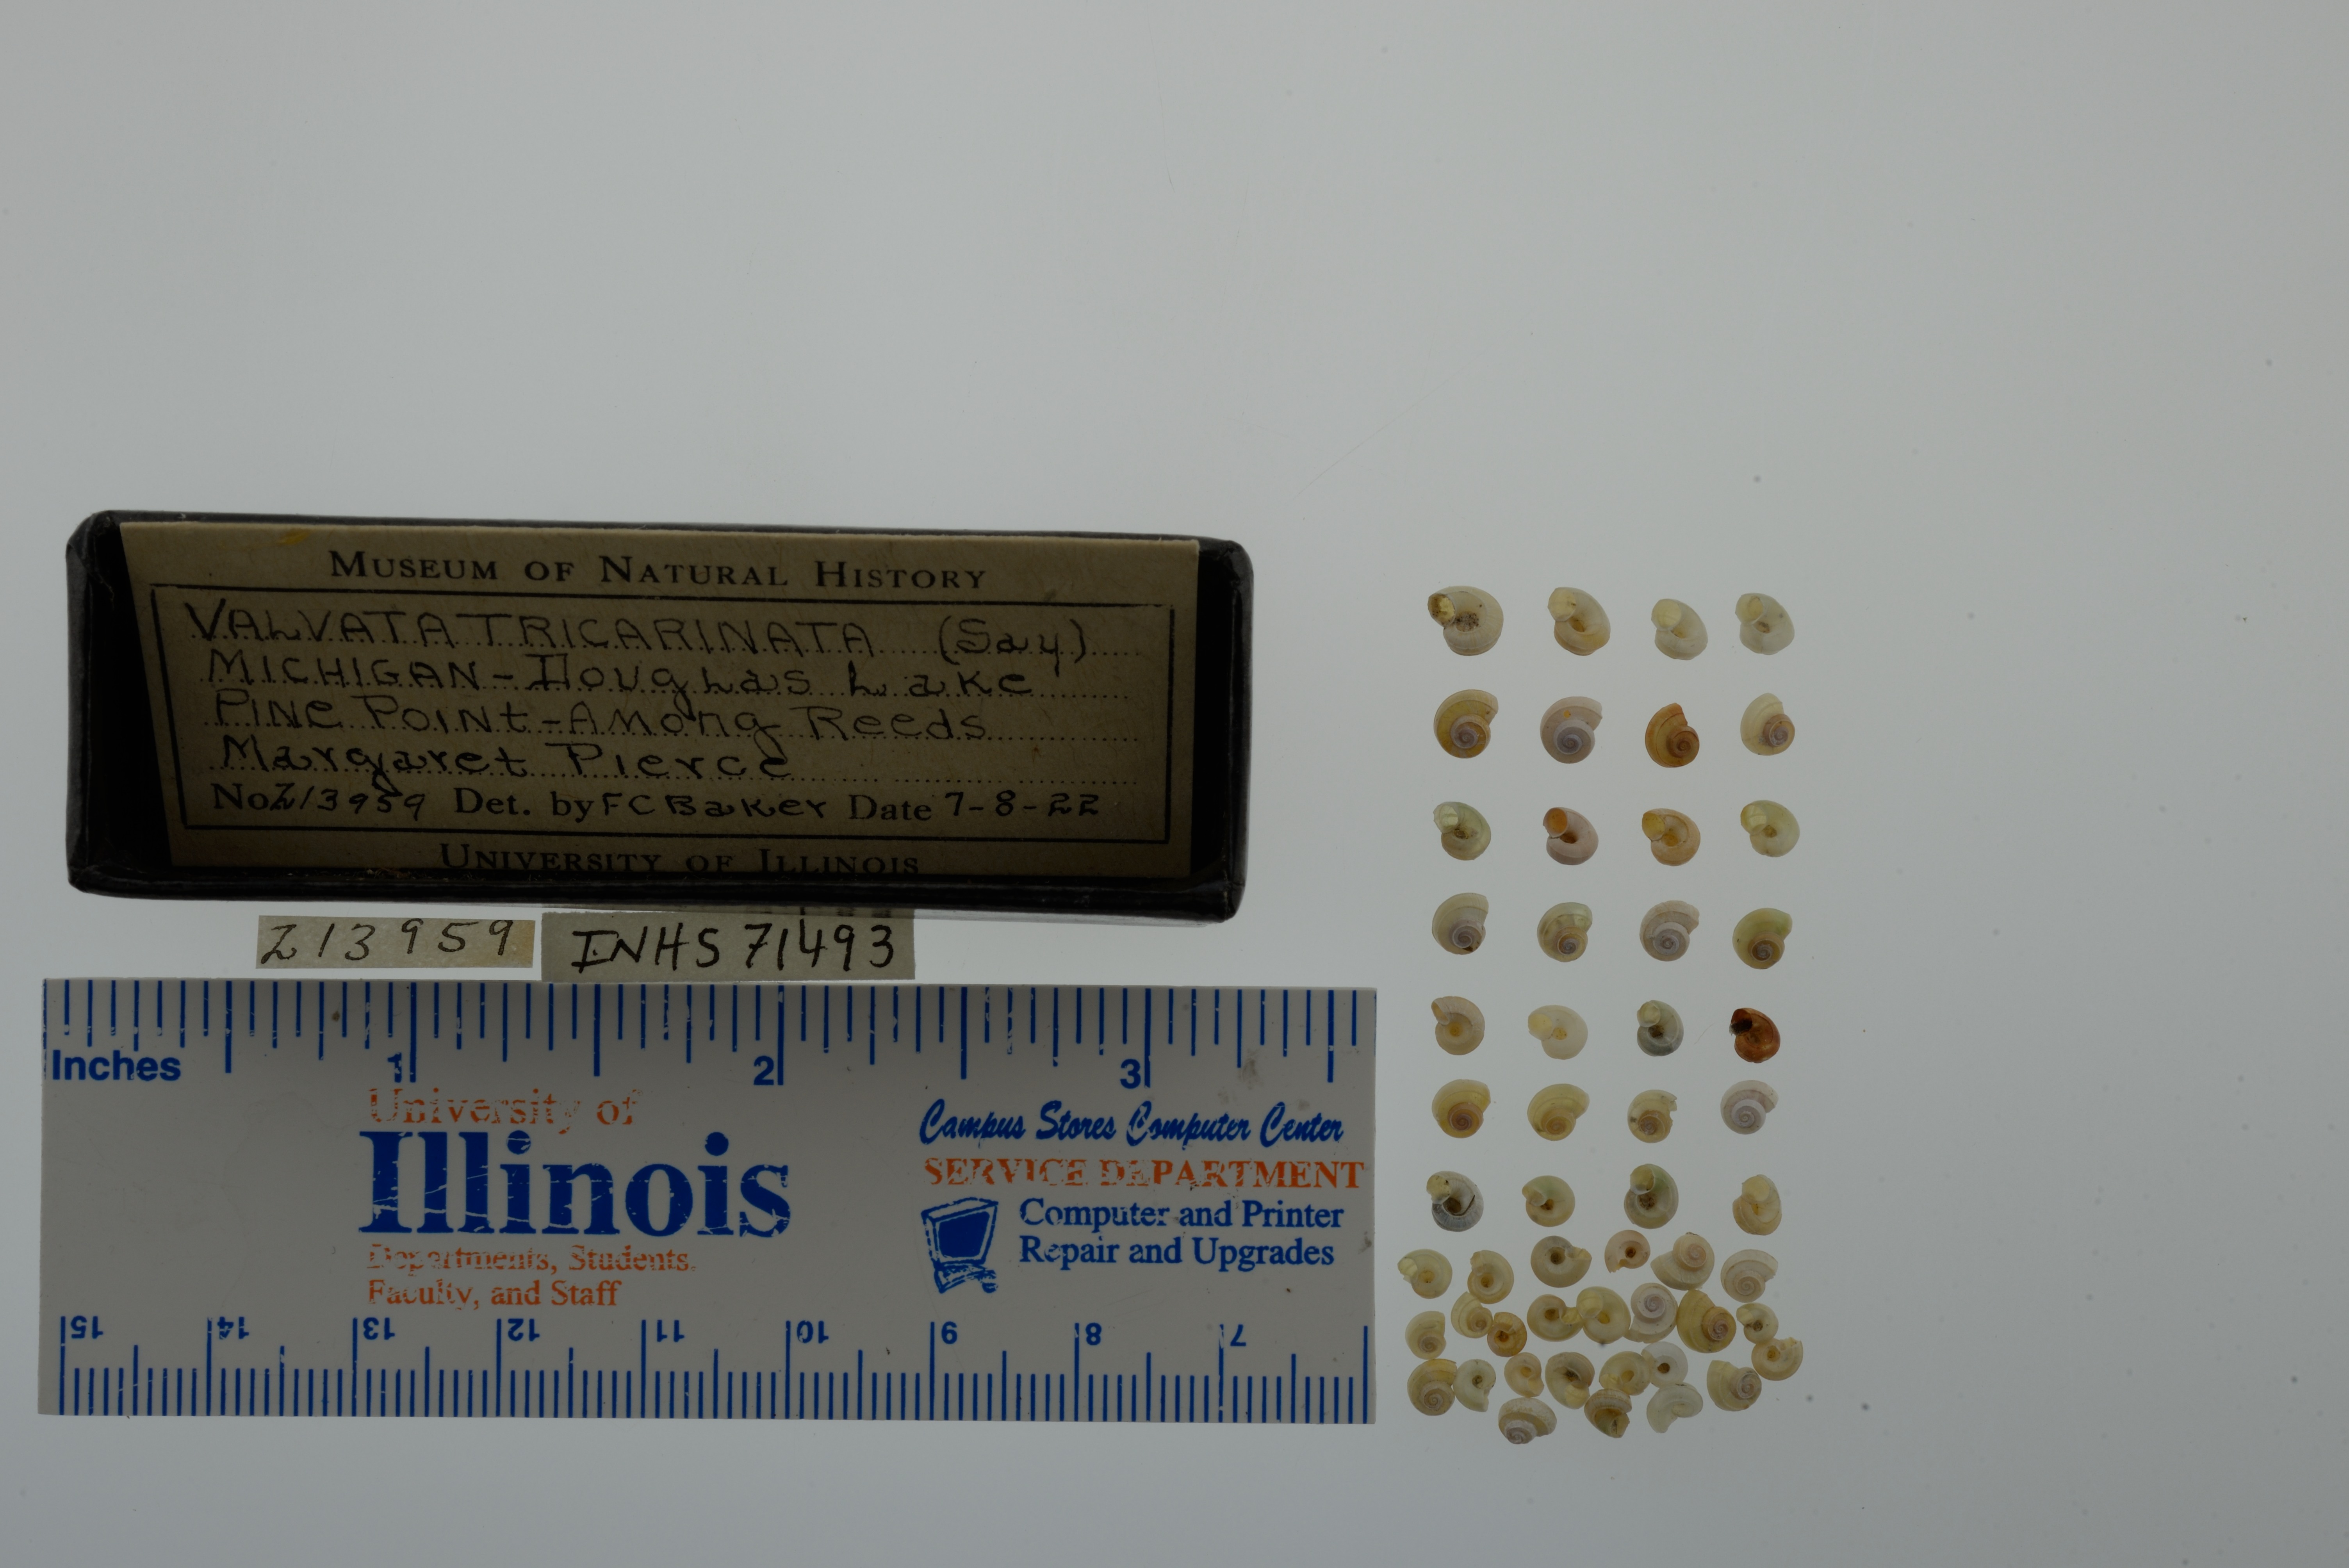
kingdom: Animalia
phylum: Mollusca
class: Gastropoda
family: Valvatidae
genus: Valvata
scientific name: Valvata tricarinata
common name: Three-ridge valvata
